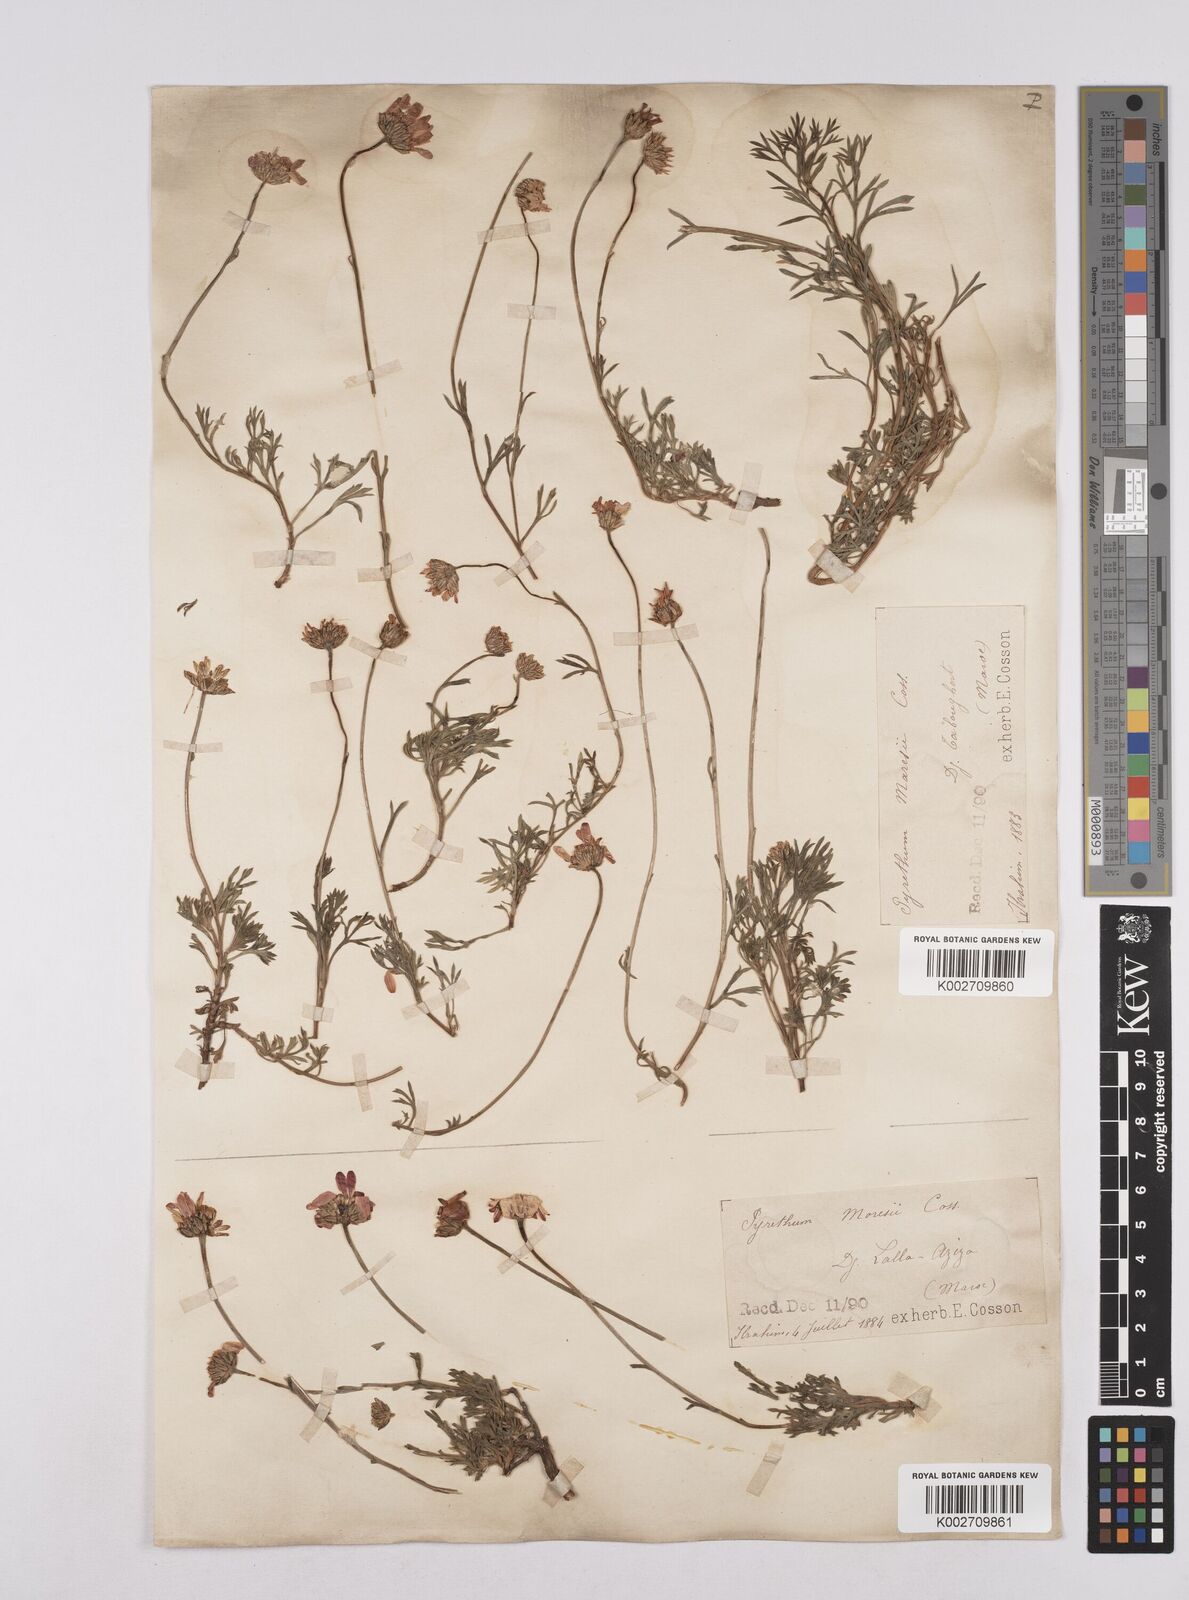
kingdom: Plantae
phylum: Tracheophyta
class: Magnoliopsida
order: Asterales
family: Asteraceae
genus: Rhodanthemum
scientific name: Rhodanthemum depressum
